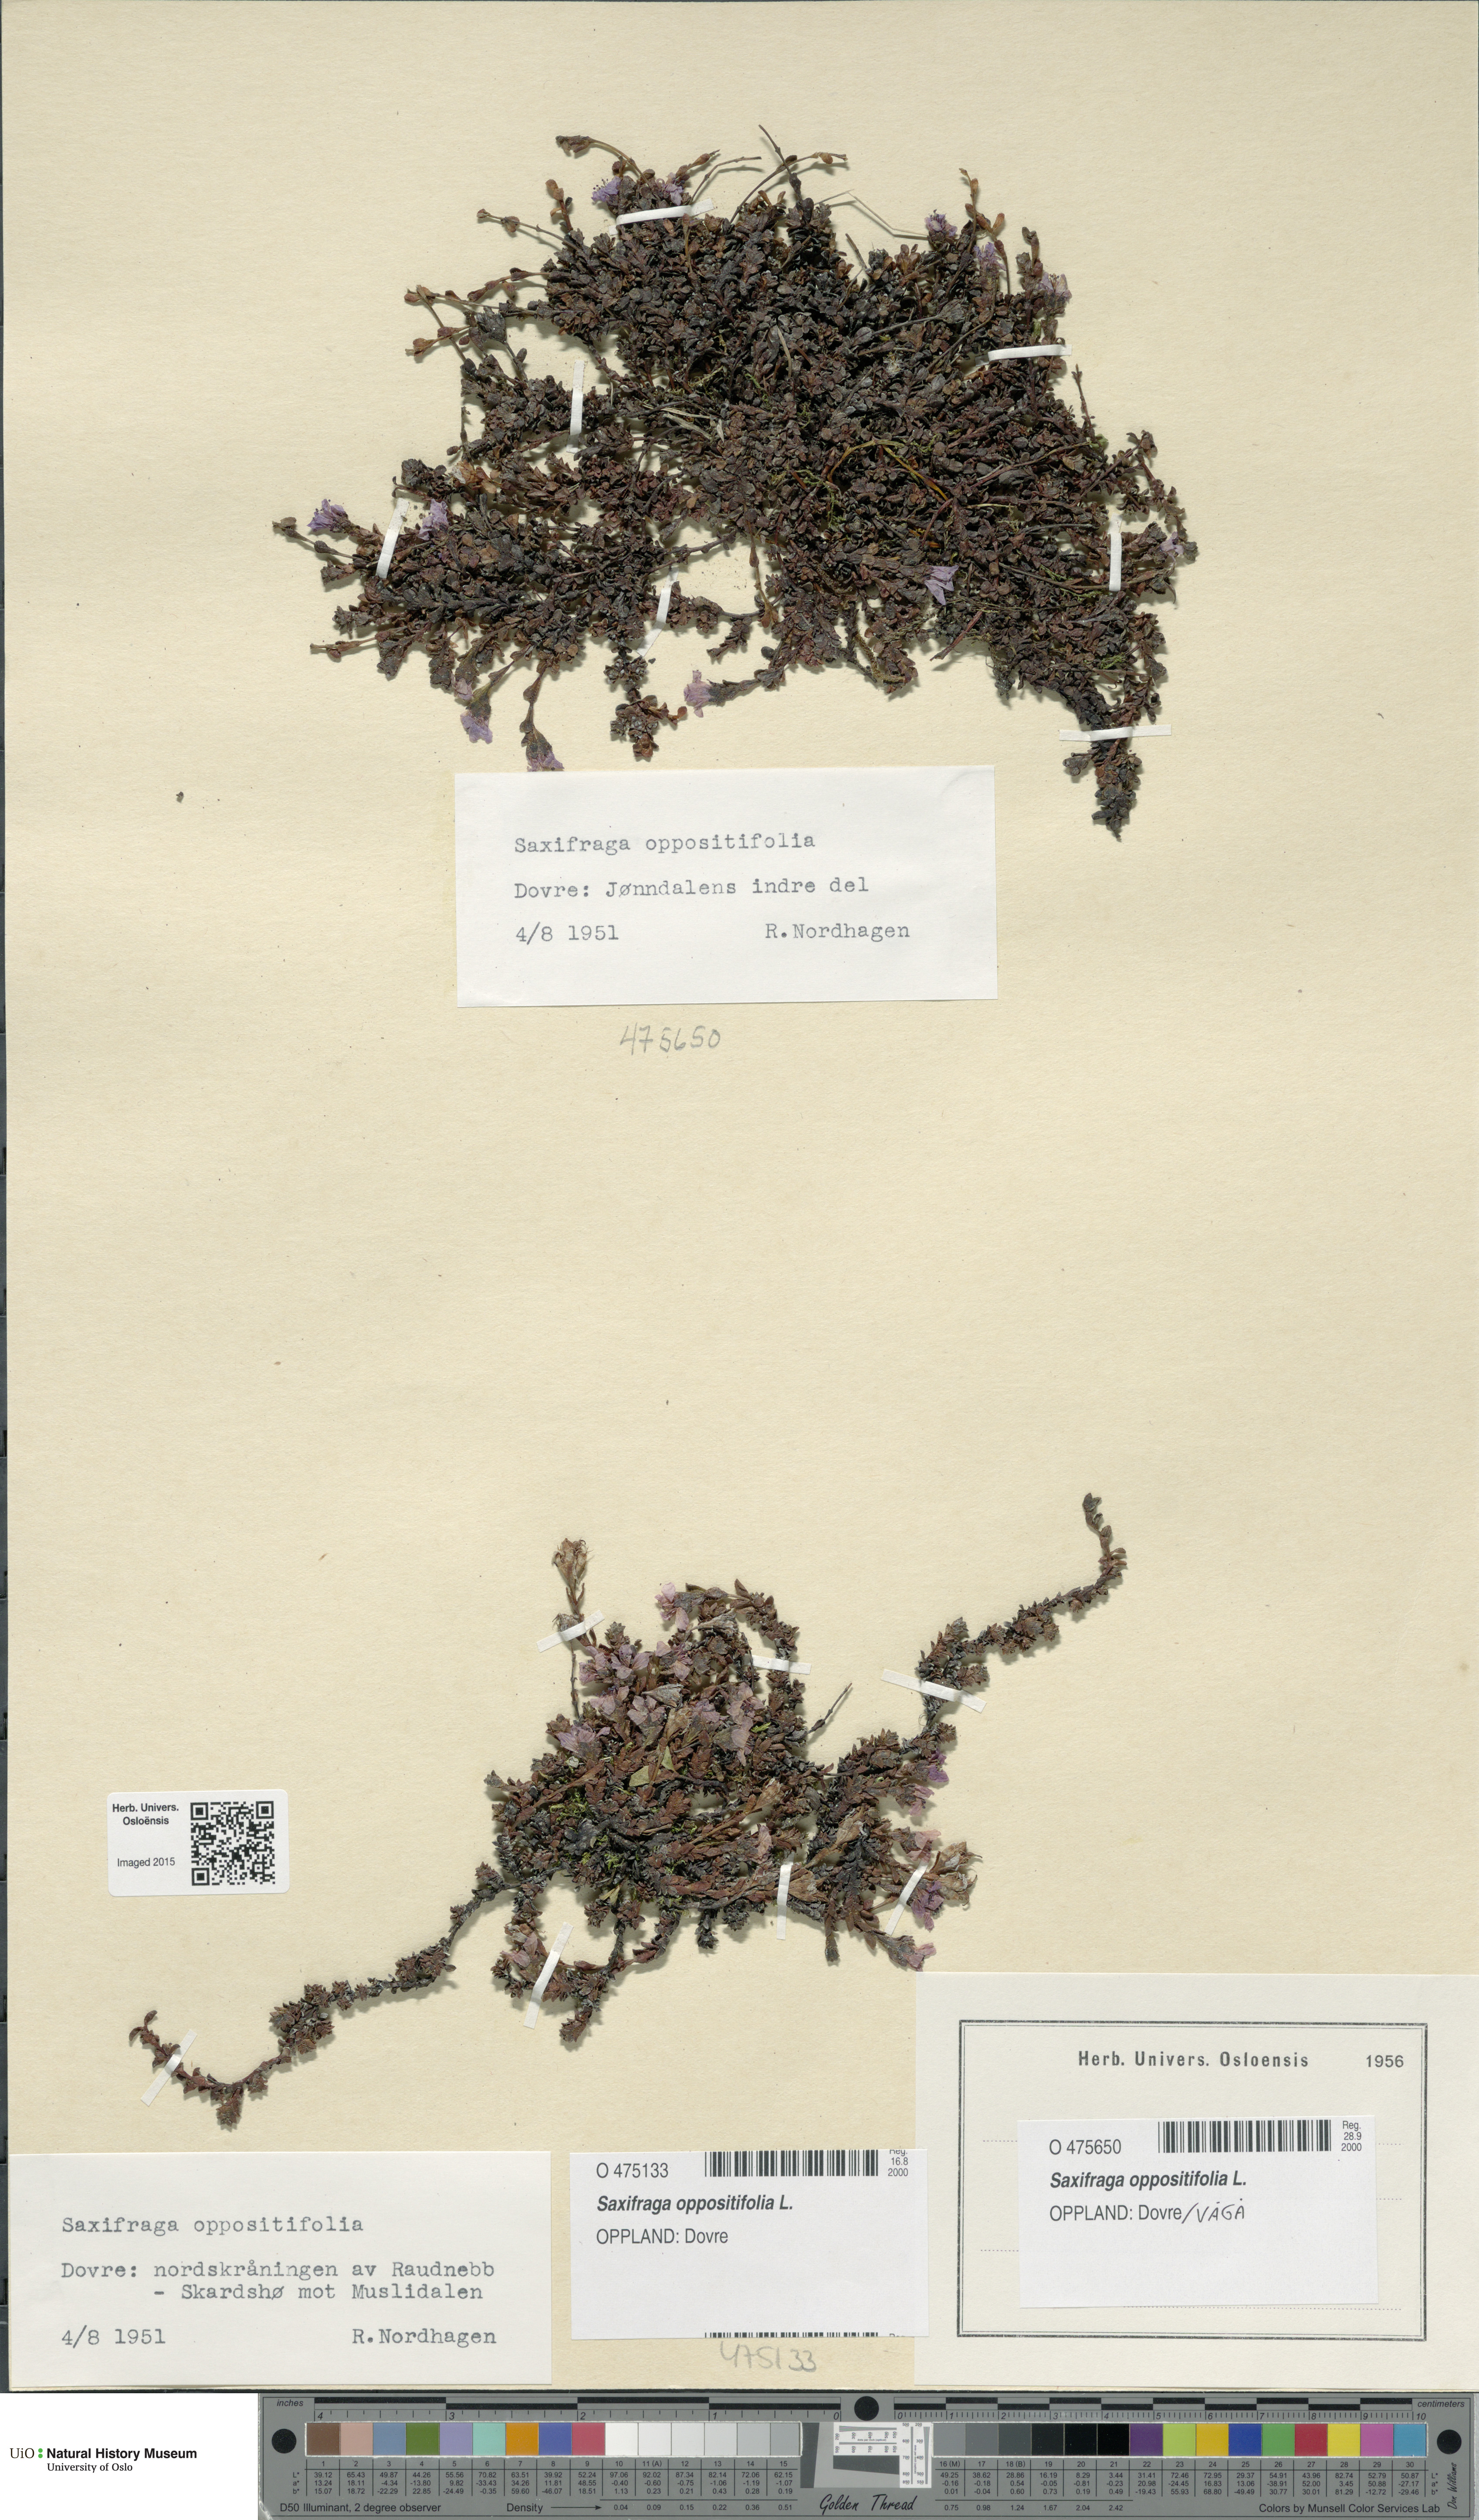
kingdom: Plantae
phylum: Tracheophyta
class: Magnoliopsida
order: Saxifragales
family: Saxifragaceae
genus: Saxifraga
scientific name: Saxifraga oppositifolia
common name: Purple saxifrage
